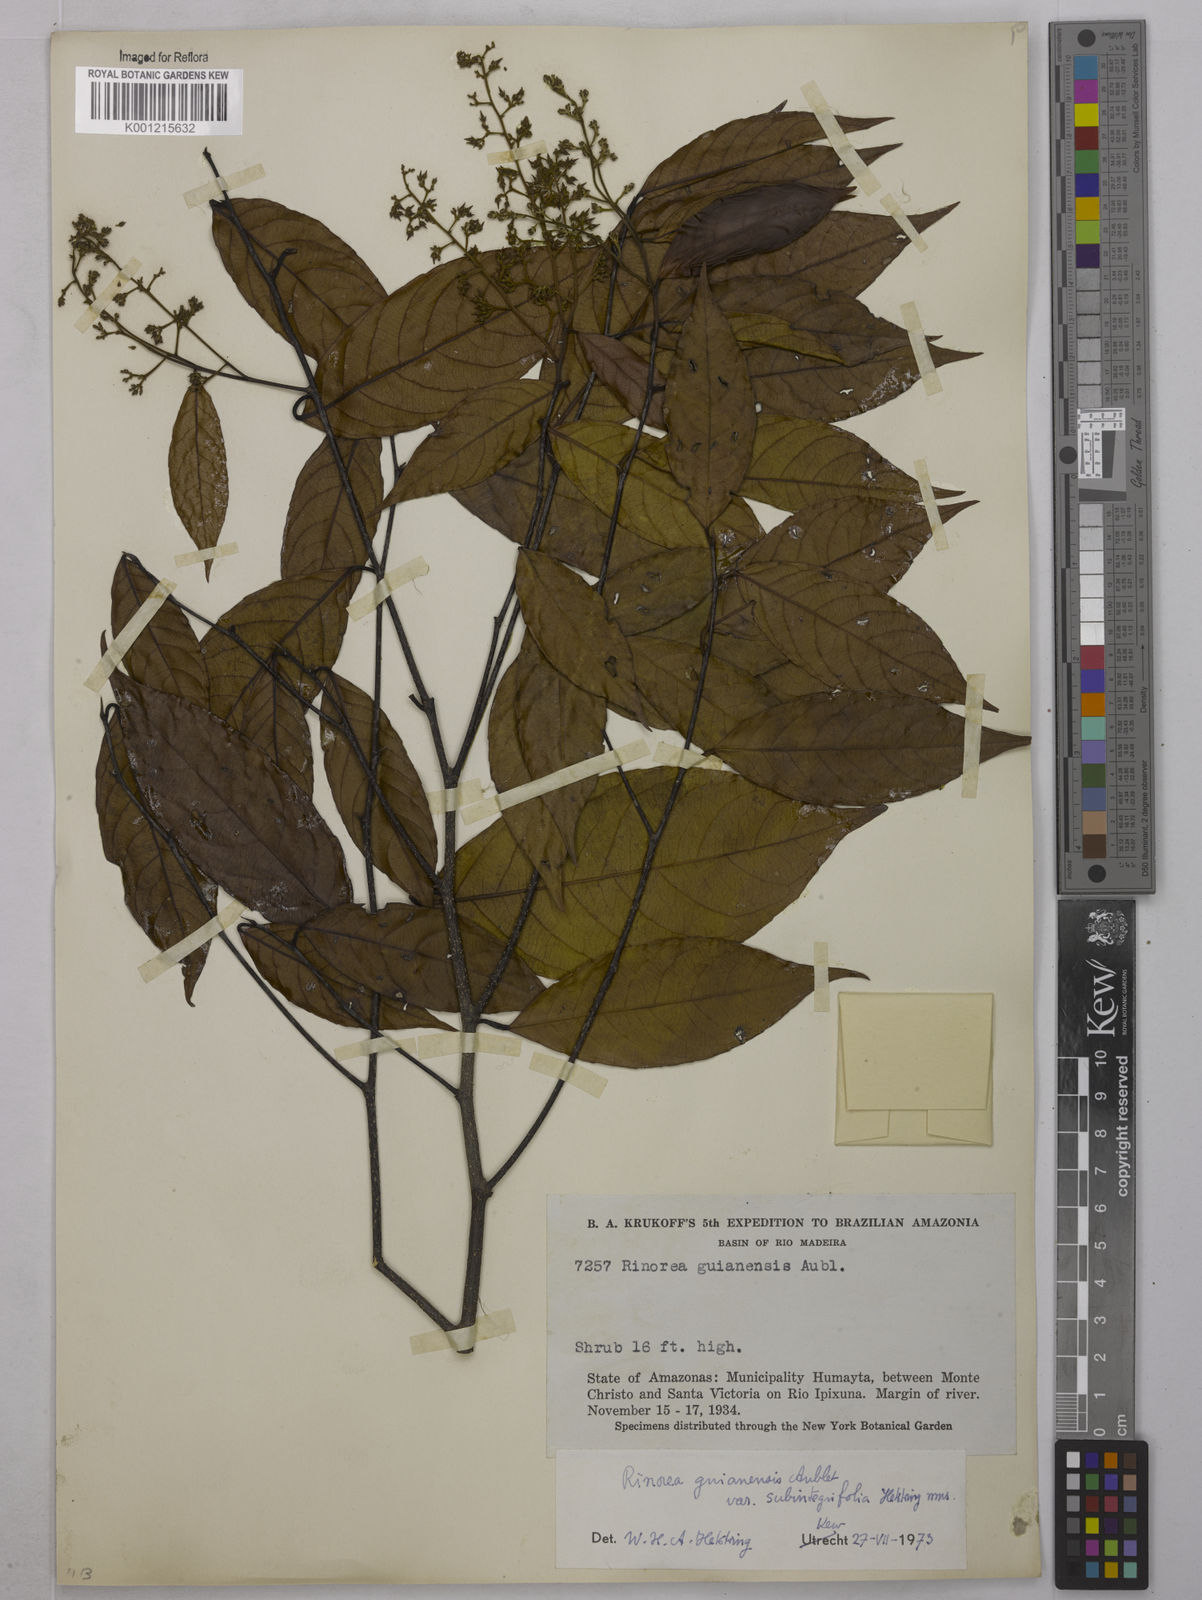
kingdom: Plantae
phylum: Tracheophyta
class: Magnoliopsida
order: Malpighiales
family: Violaceae
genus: Rinorea
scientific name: Rinorea guianensis
